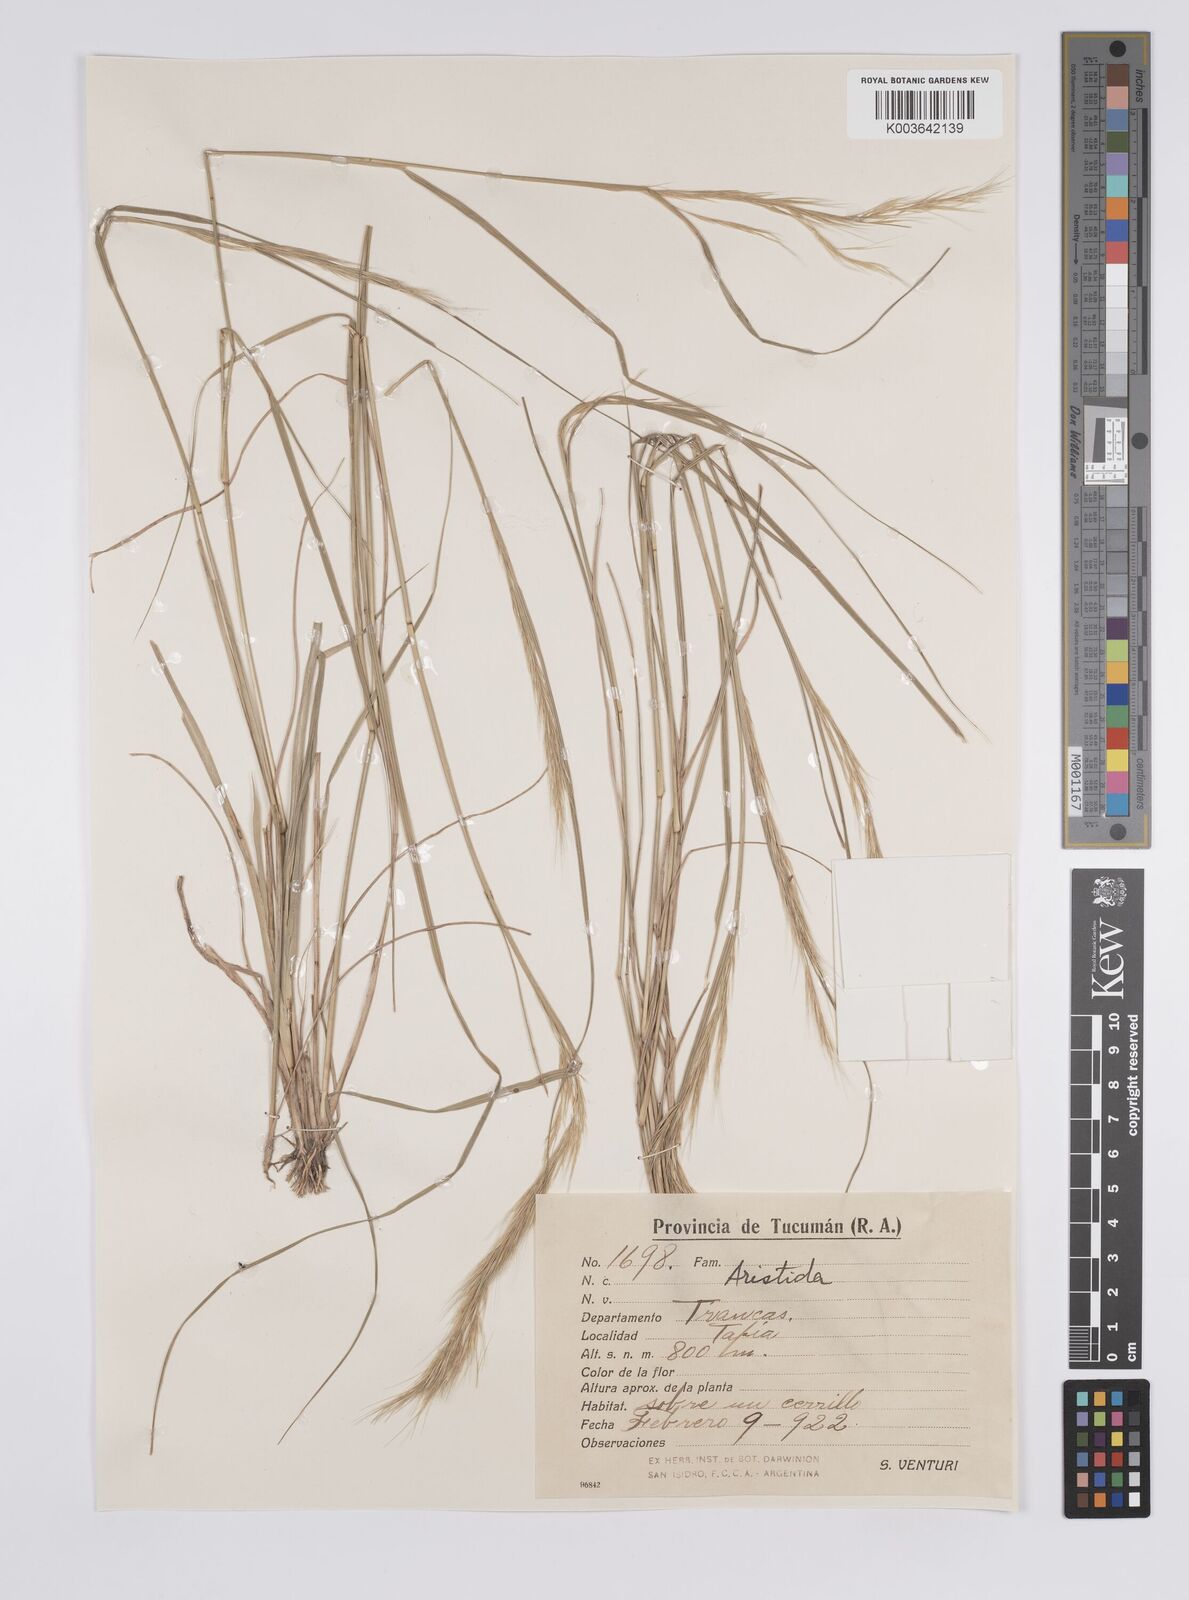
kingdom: Plantae
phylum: Tracheophyta
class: Liliopsida
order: Poales
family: Poaceae
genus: Aristida
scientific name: Aristida
